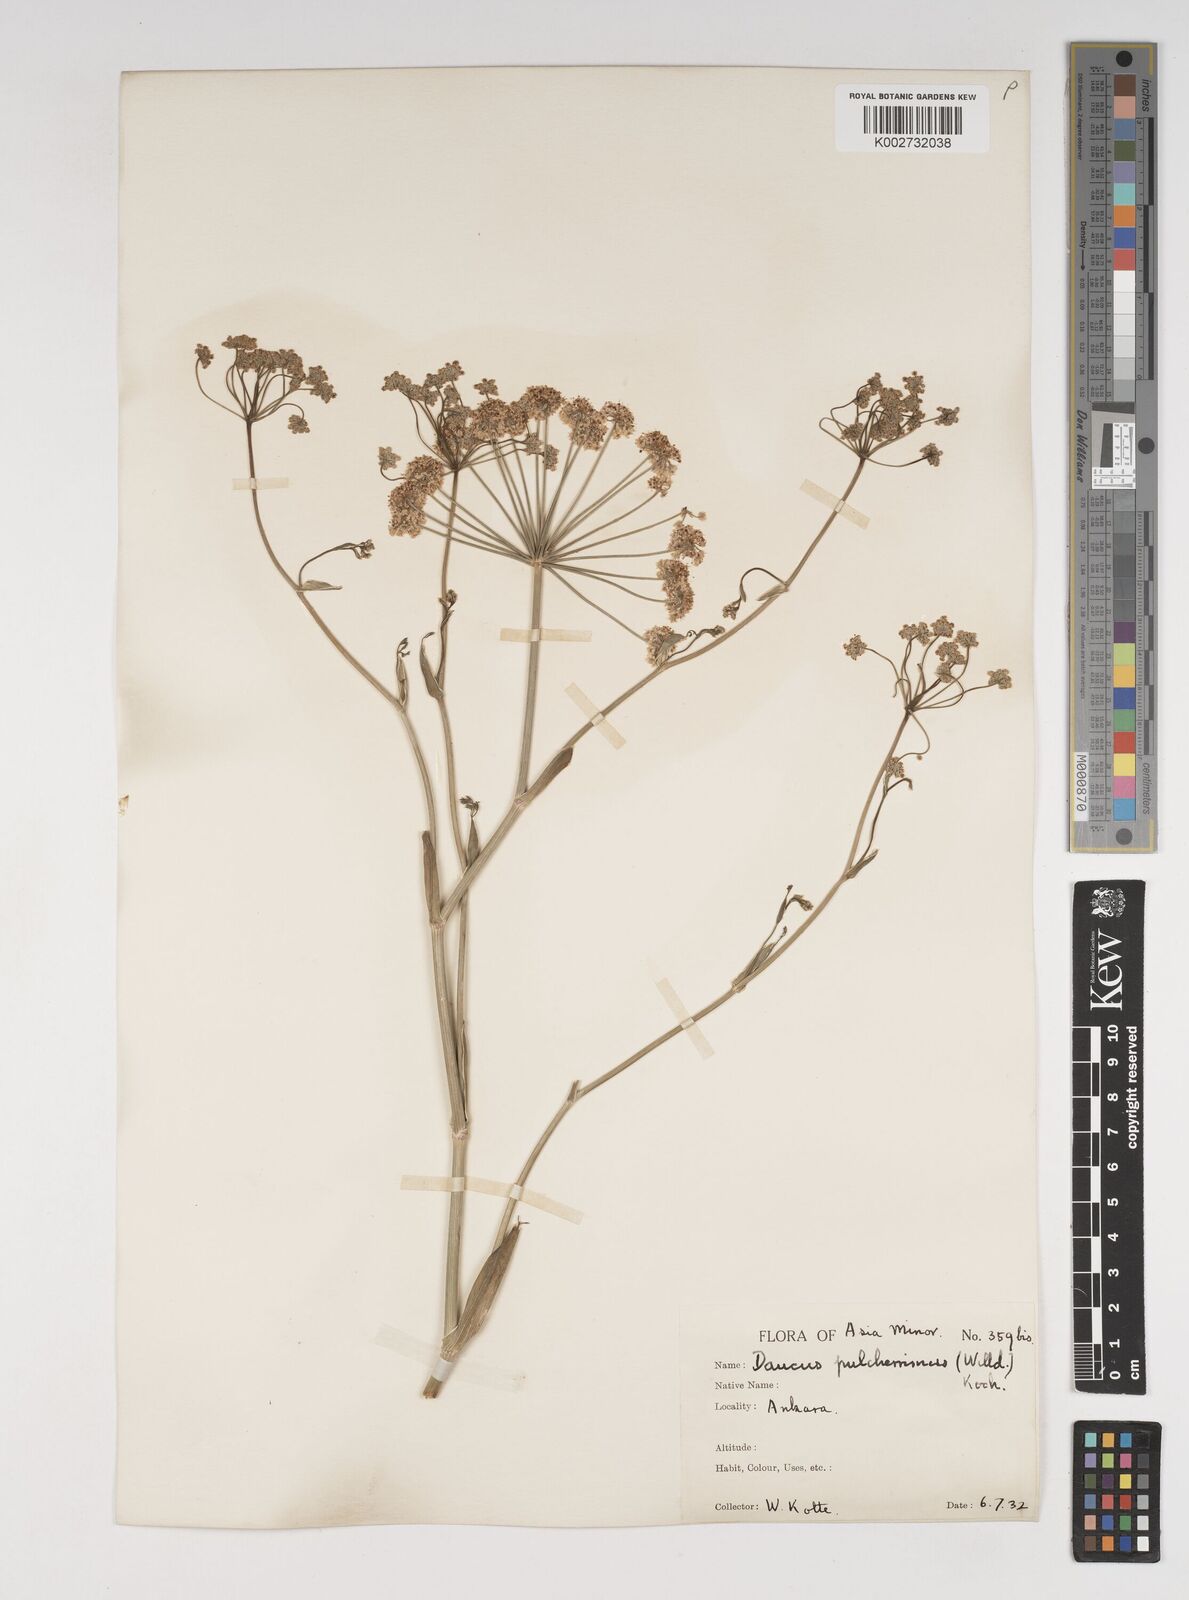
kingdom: Plantae
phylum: Tracheophyta
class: Magnoliopsida
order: Apiales
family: Apiaceae
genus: Astrodaucus
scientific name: Astrodaucus
